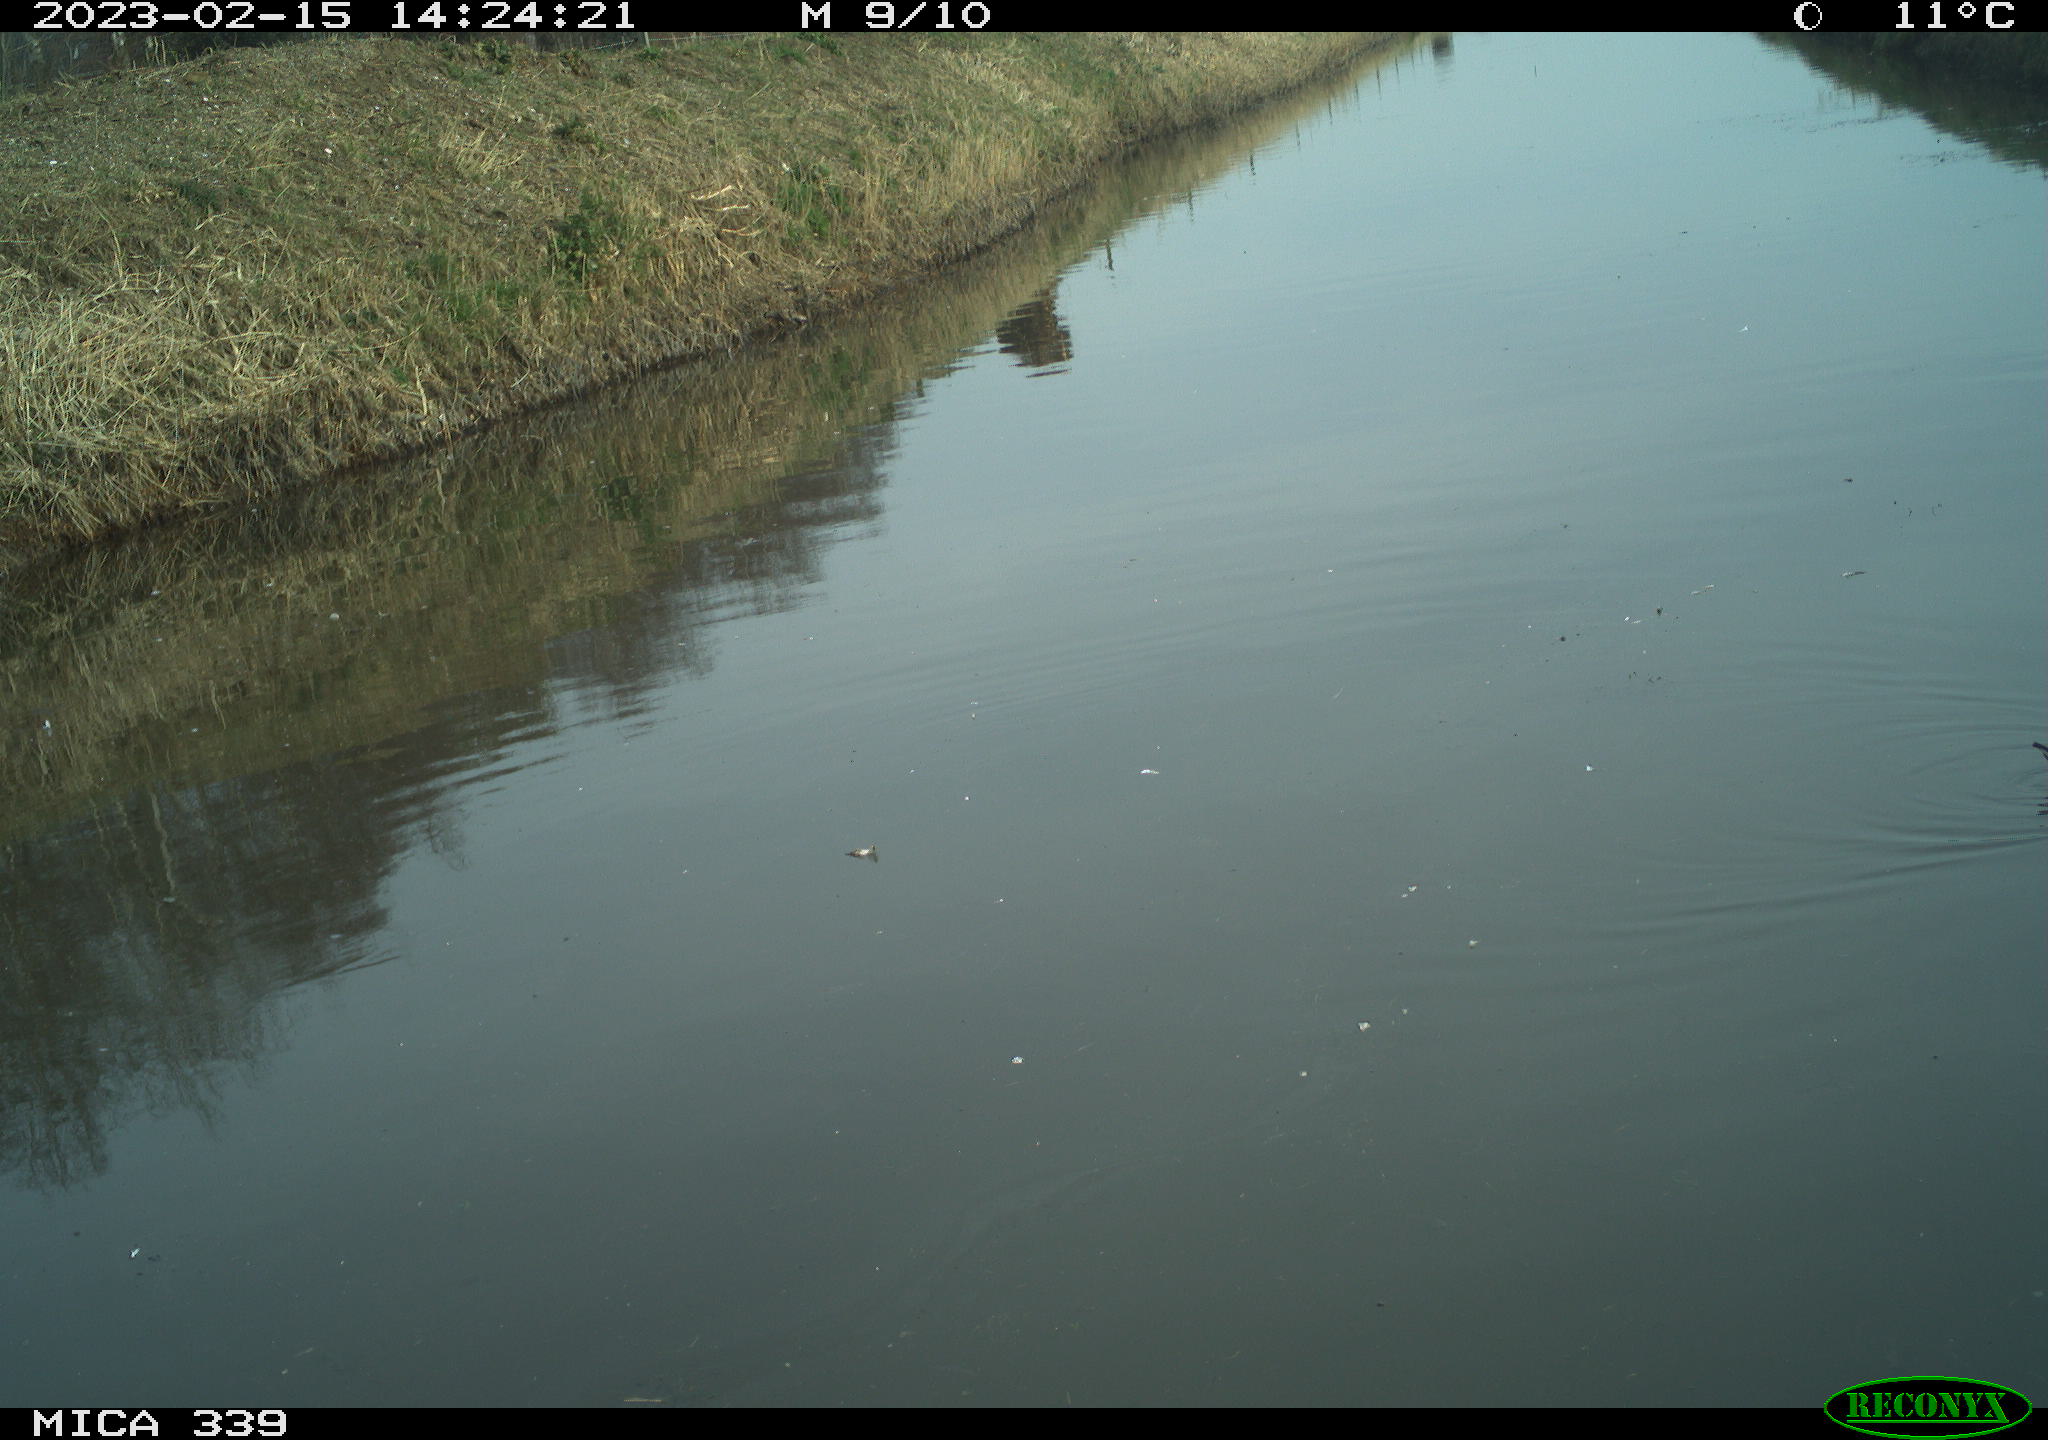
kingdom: Animalia
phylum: Chordata
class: Aves
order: Gruiformes
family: Rallidae
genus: Gallinula
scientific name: Gallinula chloropus
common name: Common moorhen
